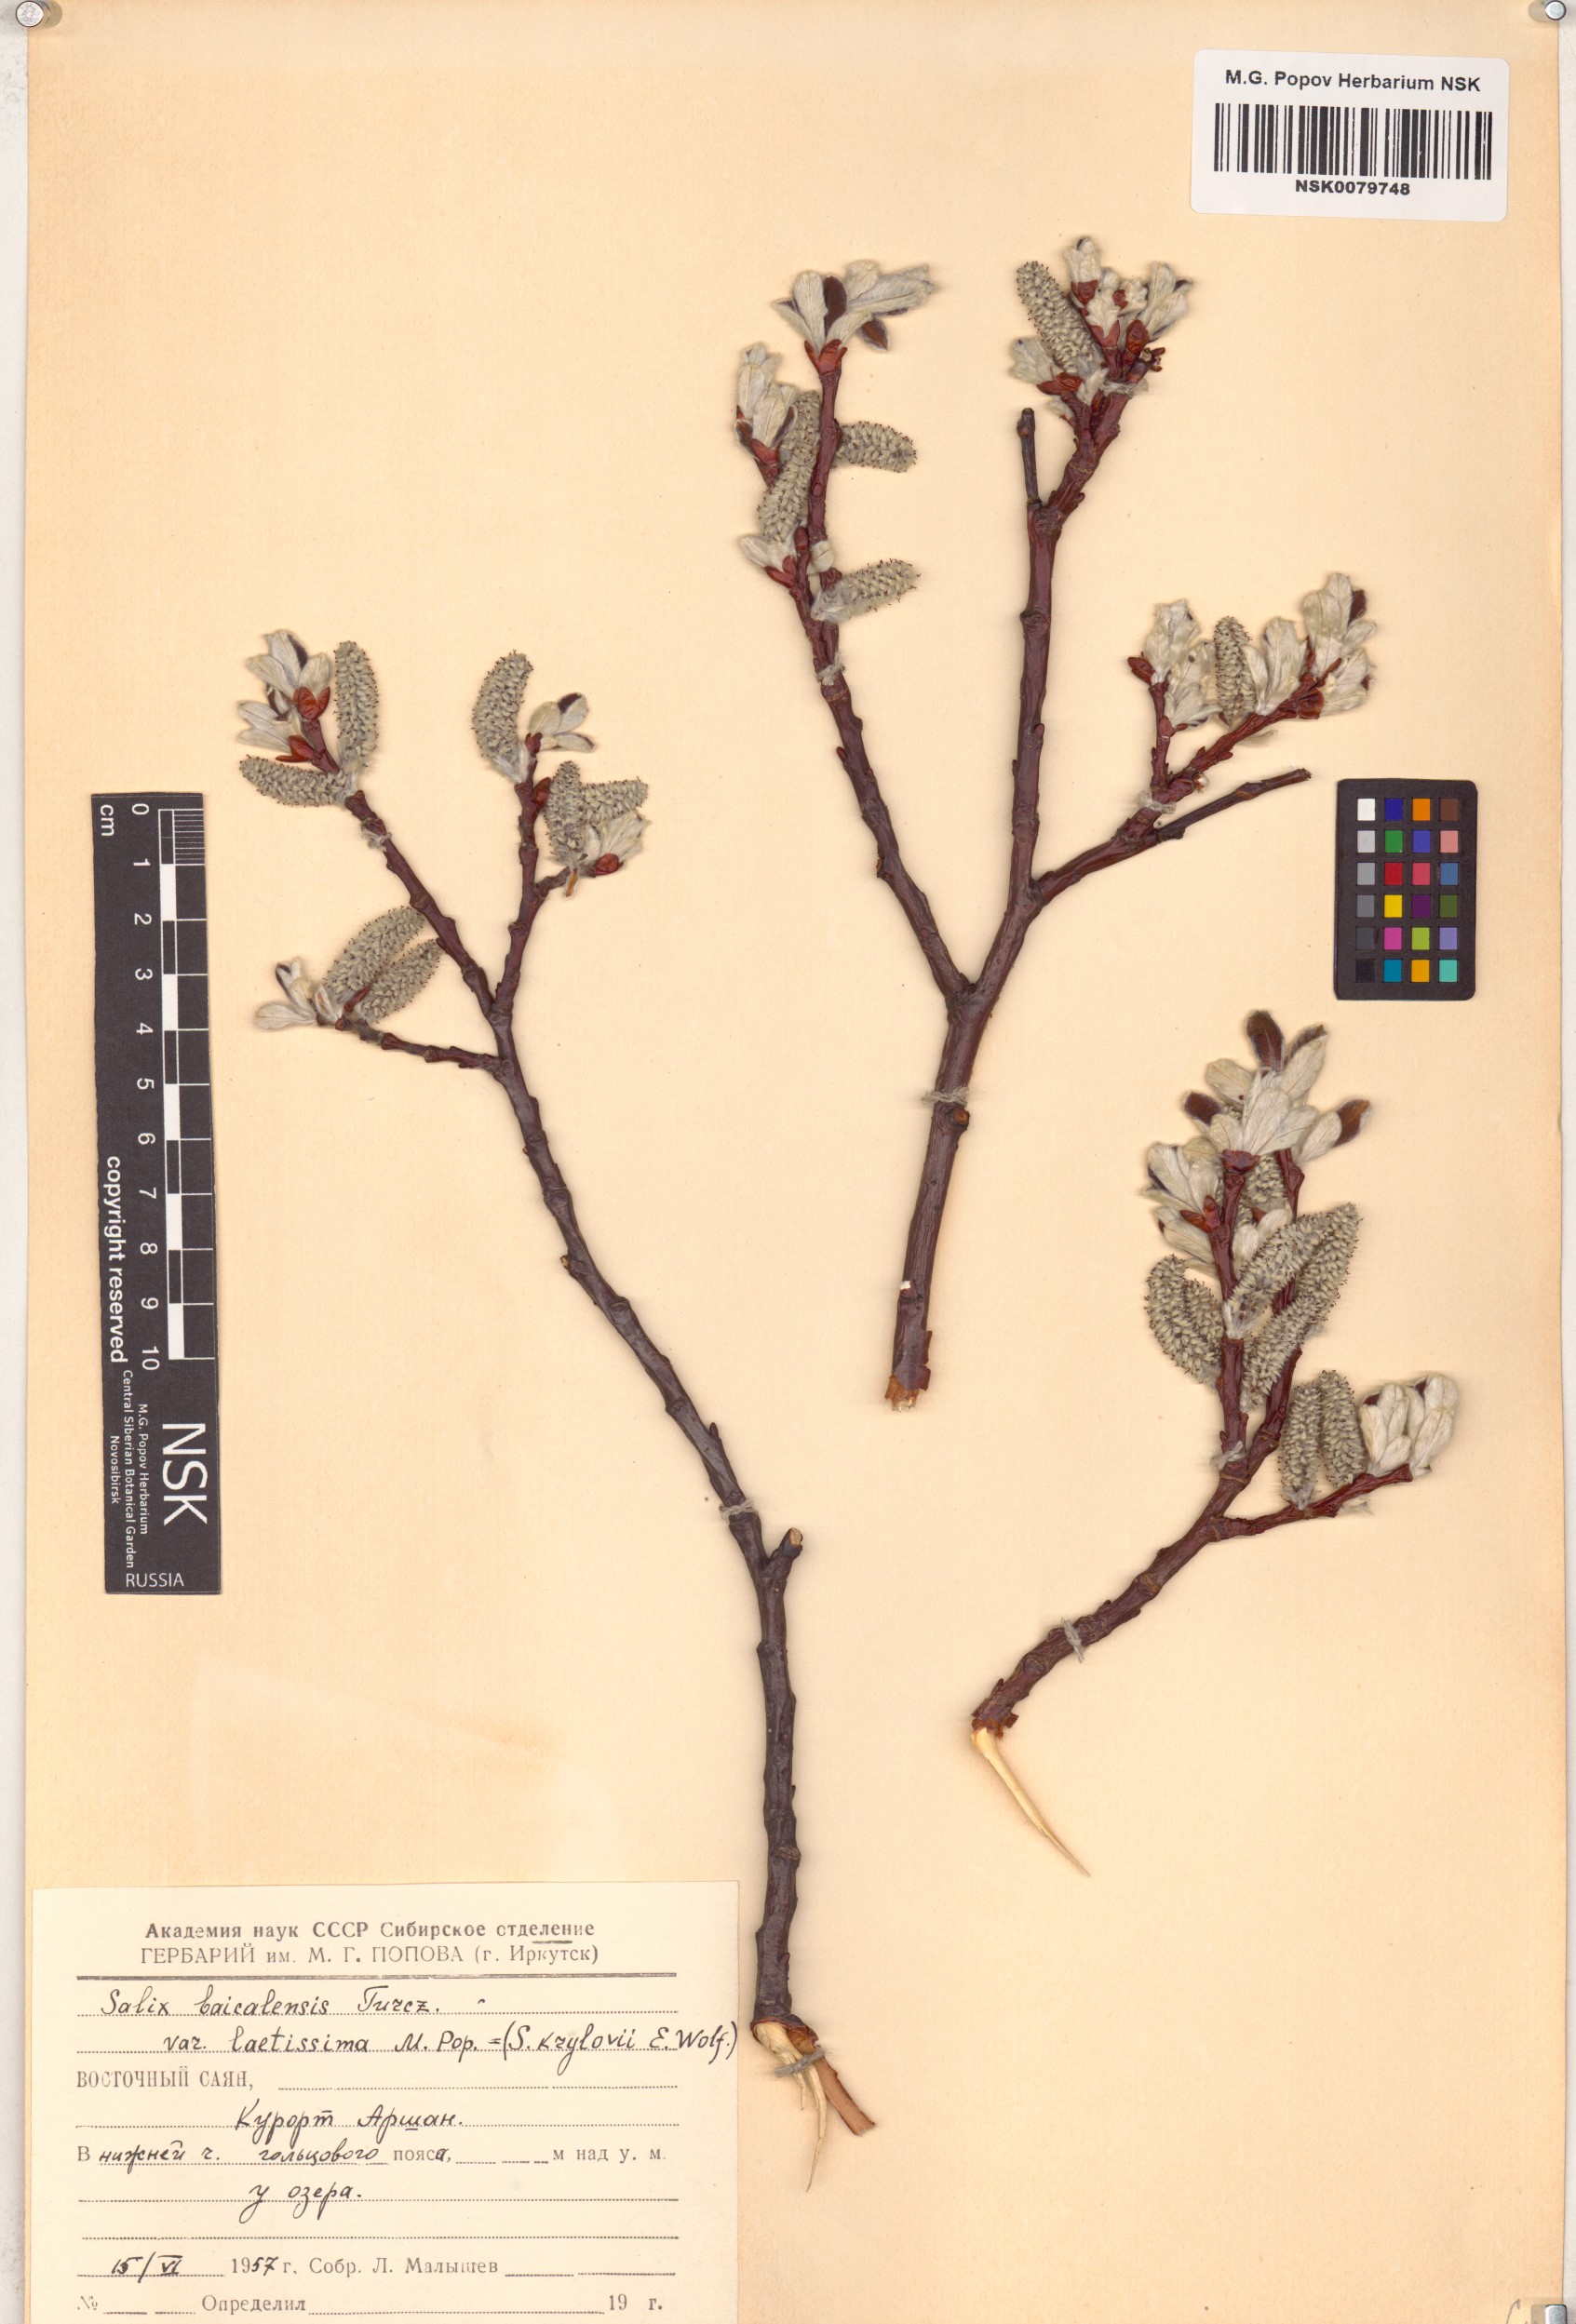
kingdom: Plantae
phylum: Tracheophyta
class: Magnoliopsida
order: Malpighiales
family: Salicaceae
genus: Salix
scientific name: Salix krylovii
